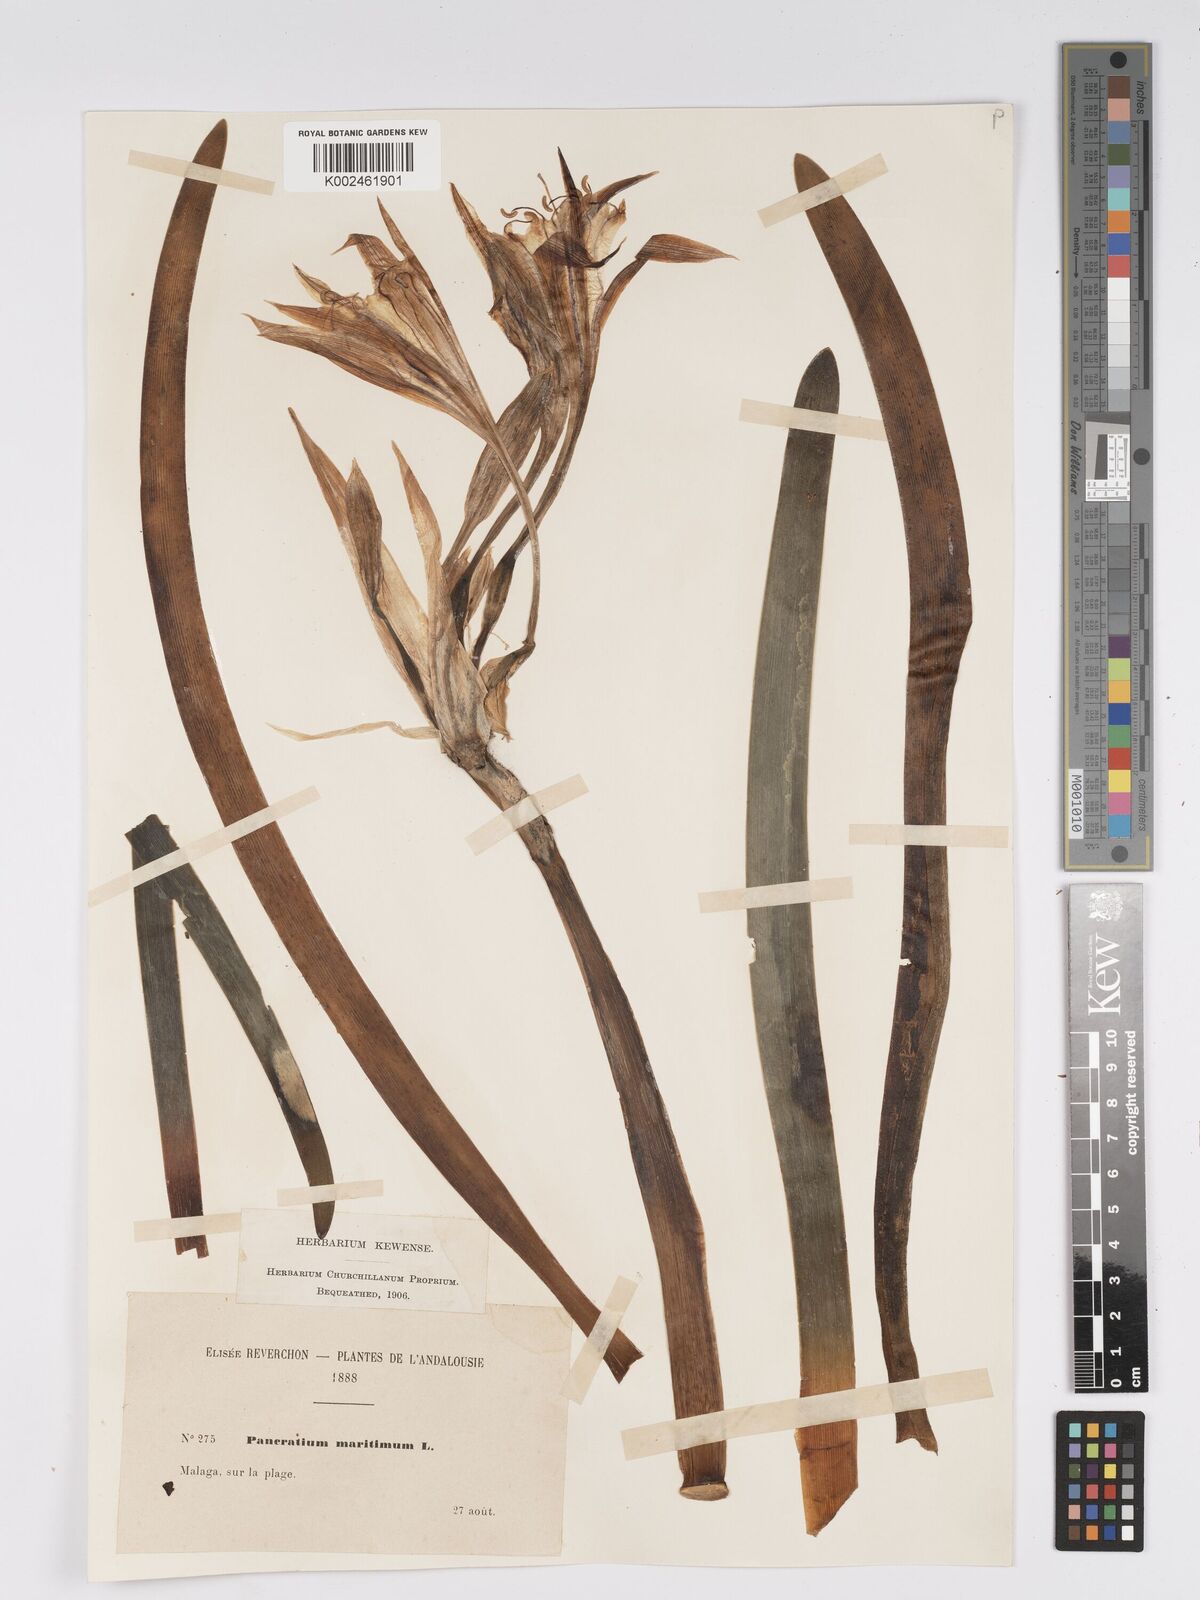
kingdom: Plantae
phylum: Tracheophyta
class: Liliopsida
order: Asparagales
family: Amaryllidaceae
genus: Pancratium
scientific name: Pancratium maritimum
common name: Sea-daffodil
